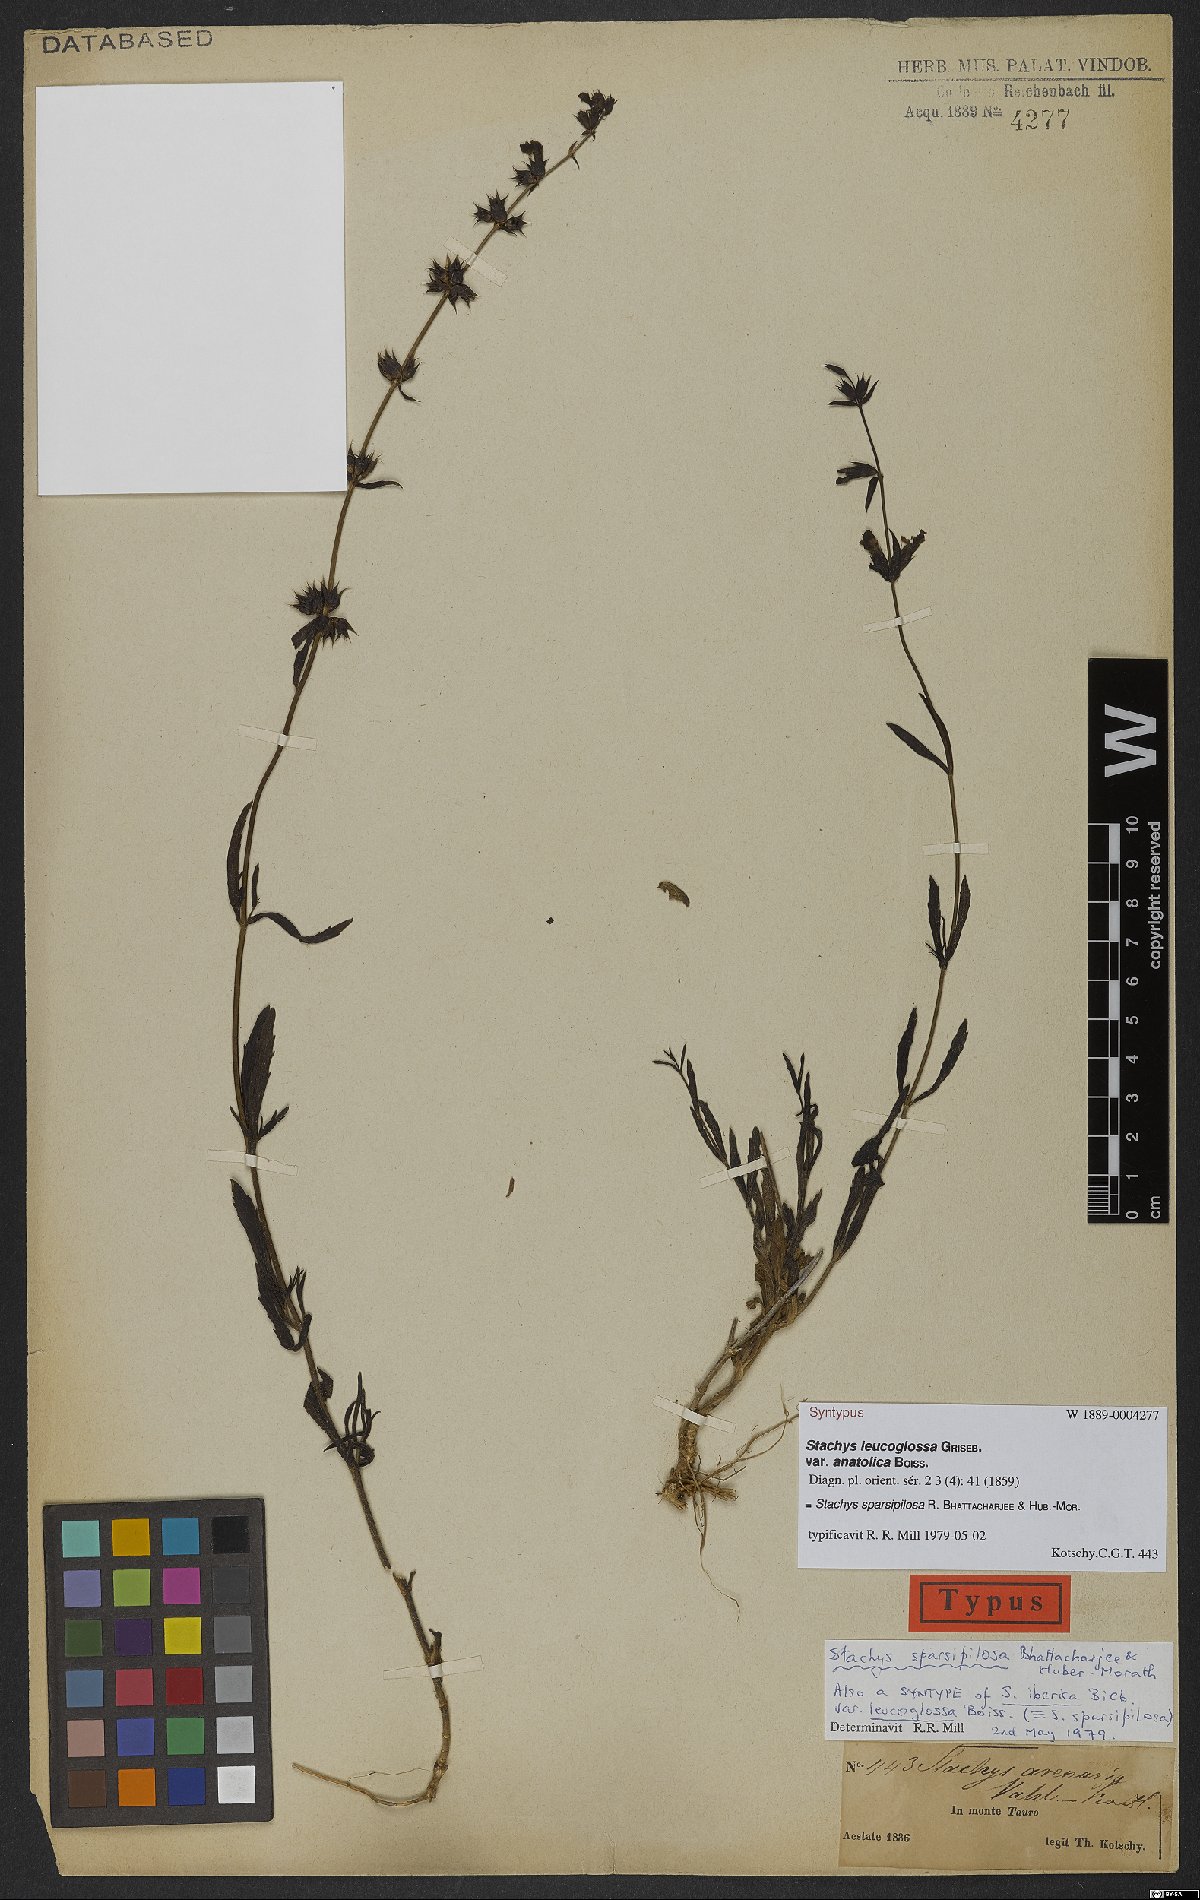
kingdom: Plantae
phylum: Tracheophyta
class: Magnoliopsida
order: Lamiales
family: Lamiaceae
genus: Stachys
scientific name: Stachys sparsipilosa
